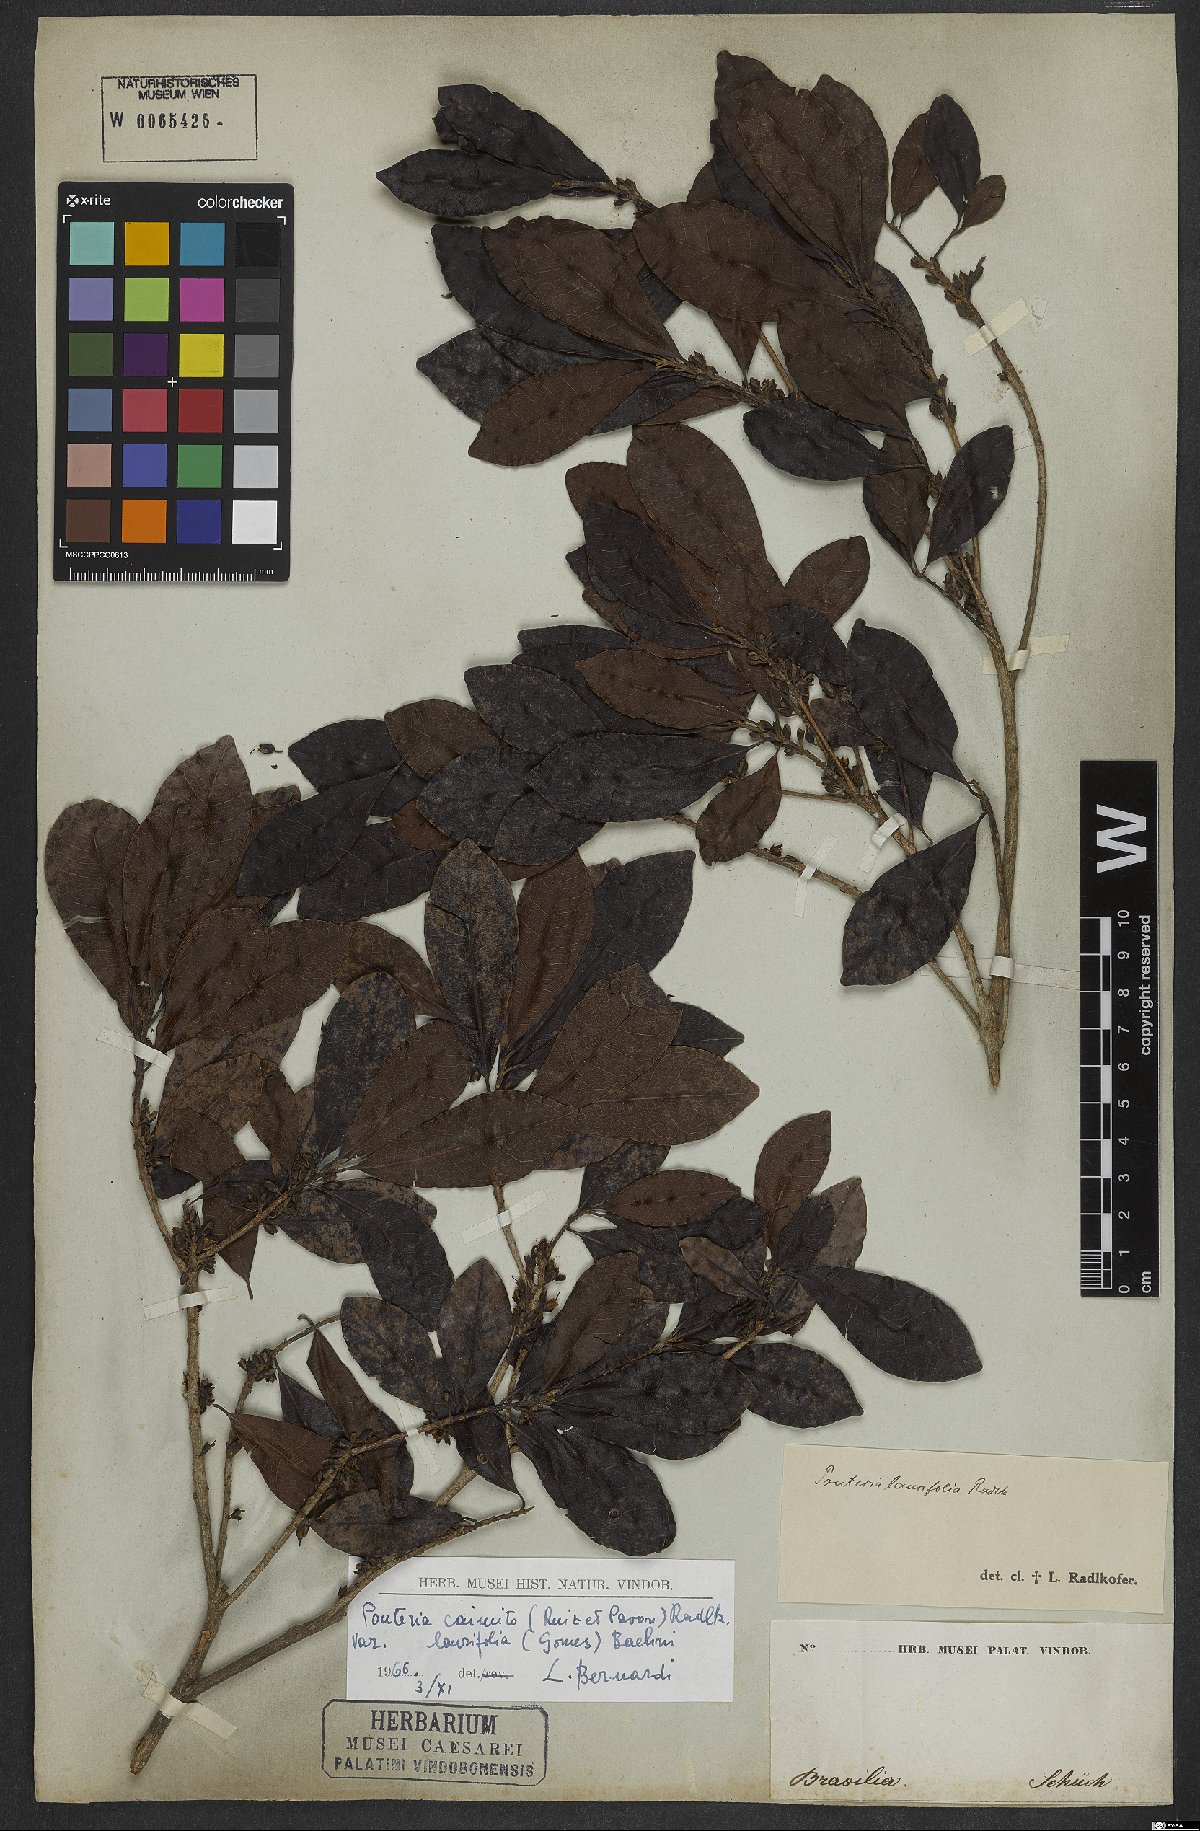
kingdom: Plantae
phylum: Tracheophyta
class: Magnoliopsida
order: Ericales
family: Sapotaceae
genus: Pouteria
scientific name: Pouteria caimito
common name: Caimito
